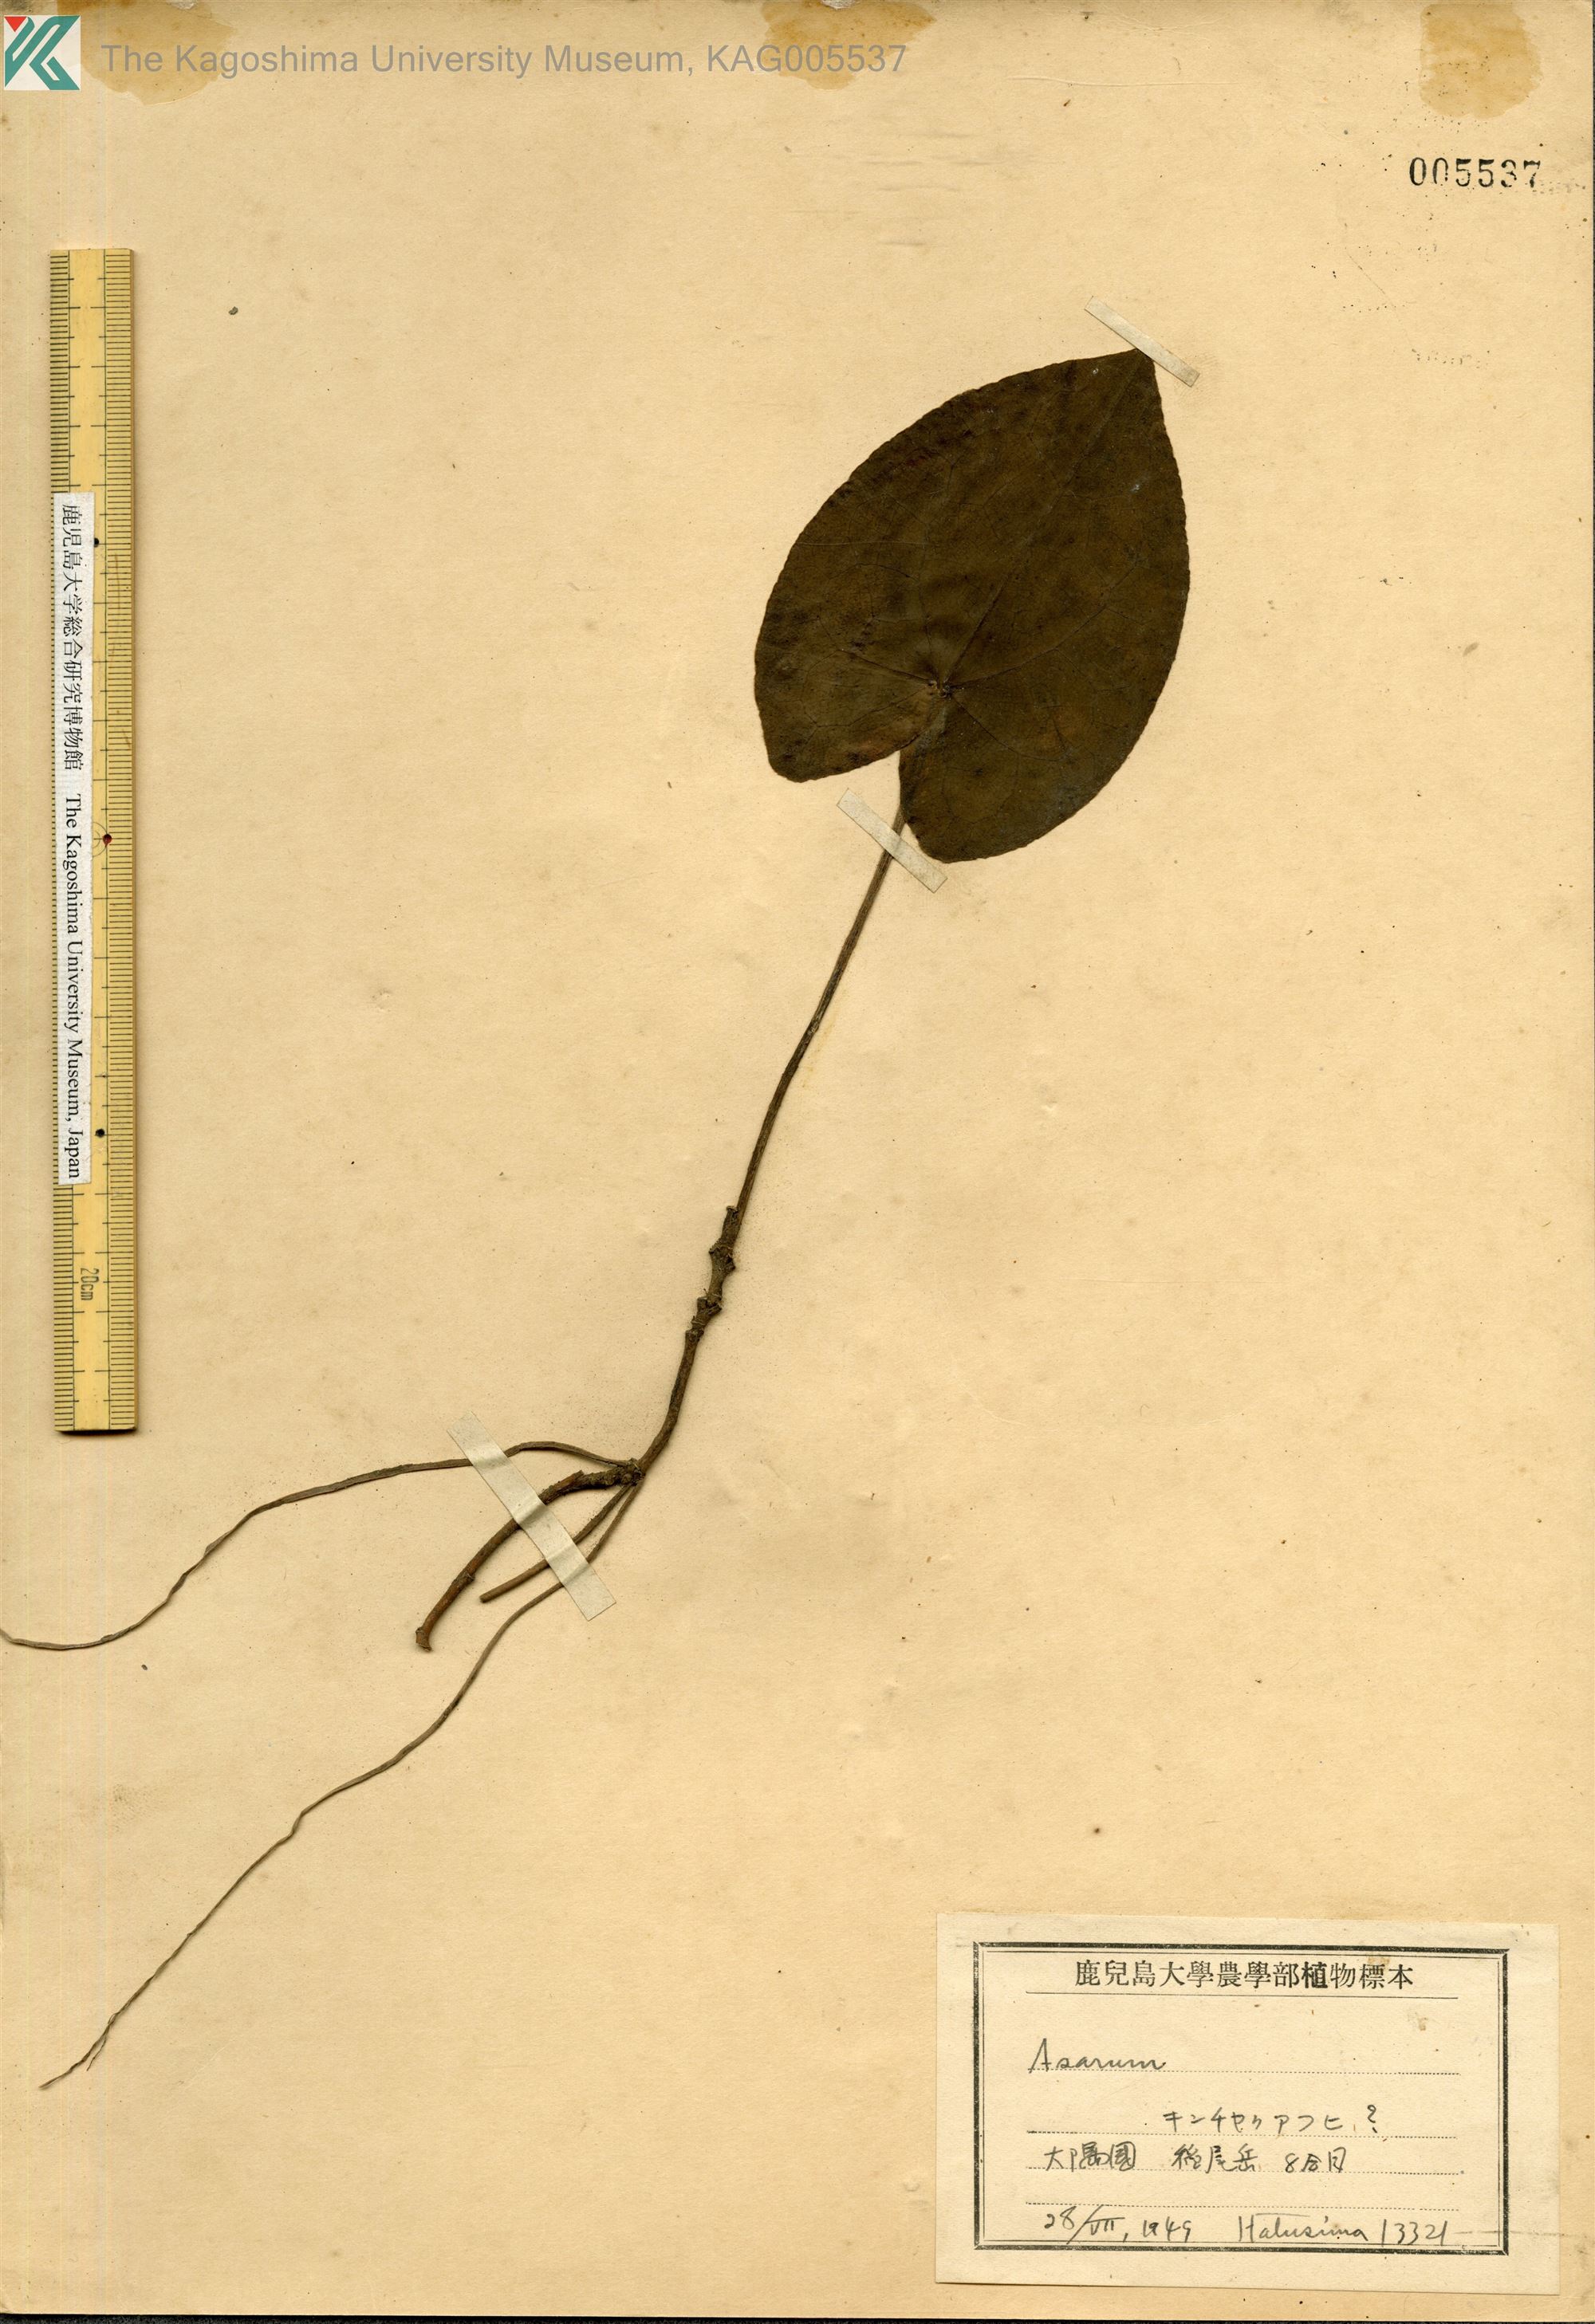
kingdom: Plantae
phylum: Tracheophyta
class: Magnoliopsida
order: Piperales
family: Aristolochiaceae
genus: Asarum
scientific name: Asarum hexalobum
